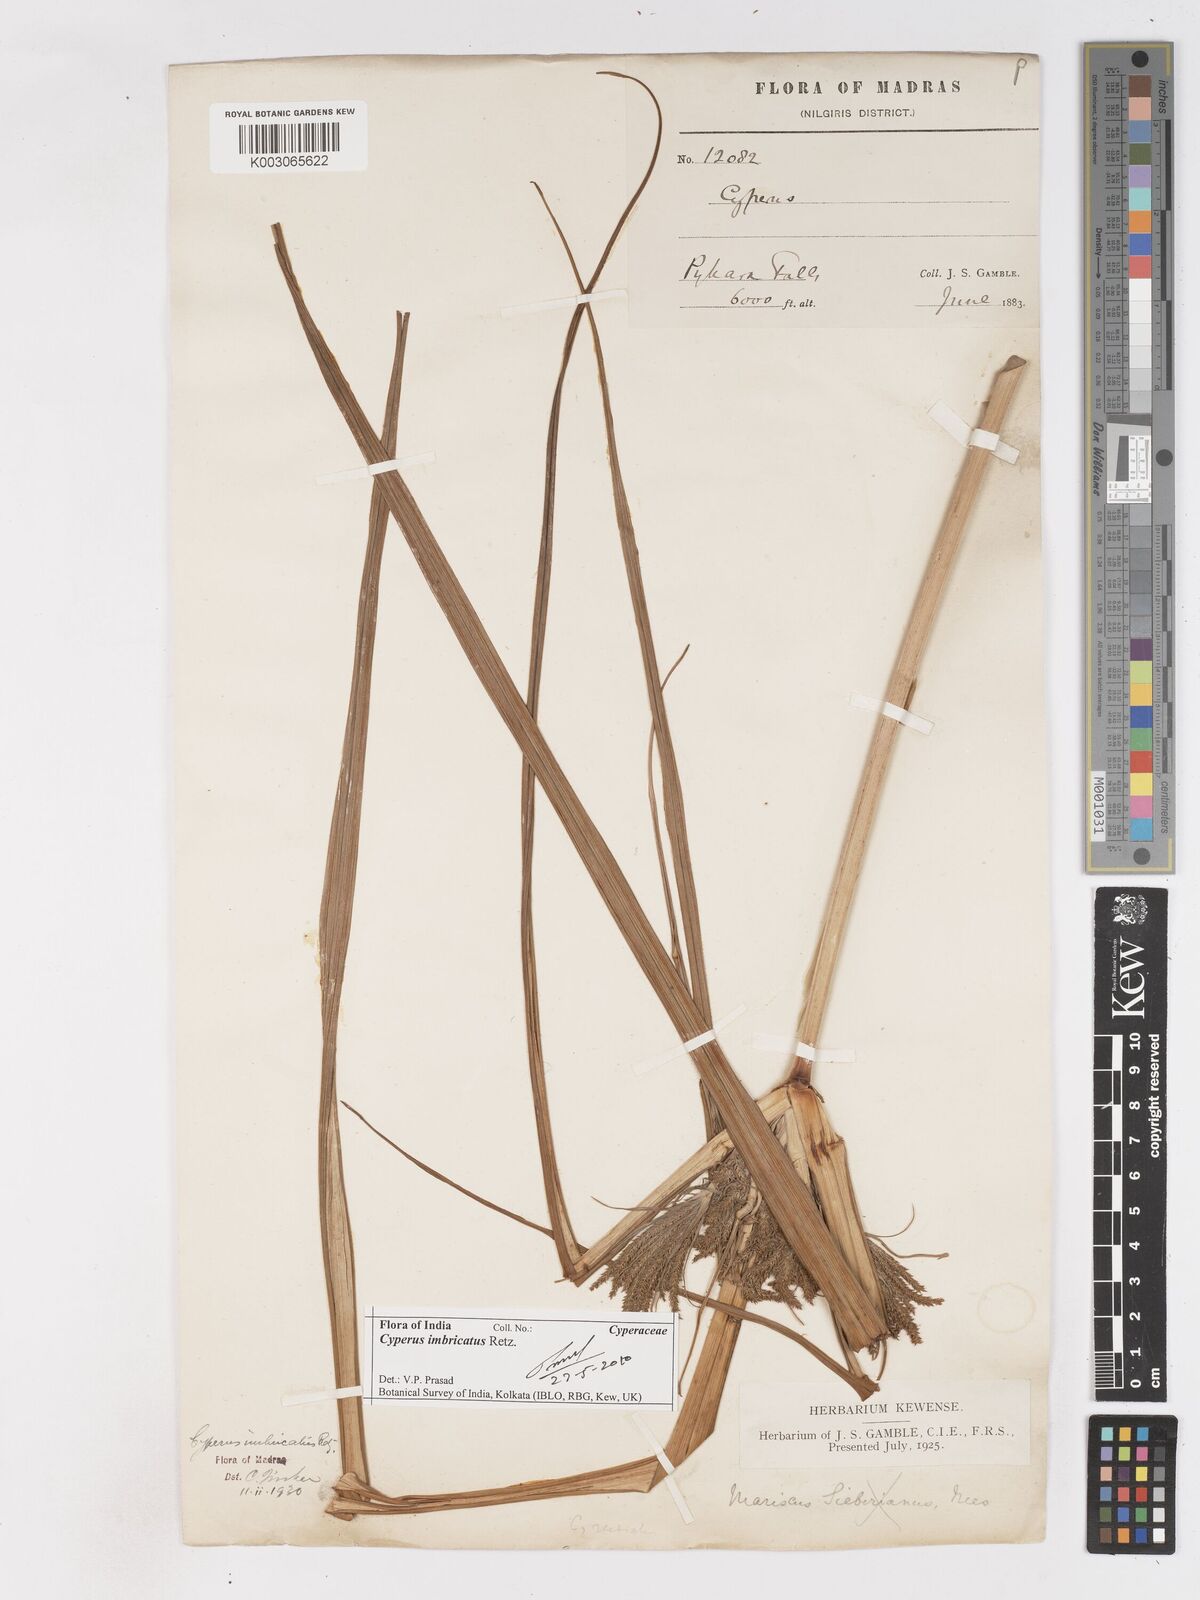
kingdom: Plantae
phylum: Tracheophyta
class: Liliopsida
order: Poales
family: Cyperaceae
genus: Cyperus
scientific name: Cyperus imbricatus
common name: Shingle flatsedge
